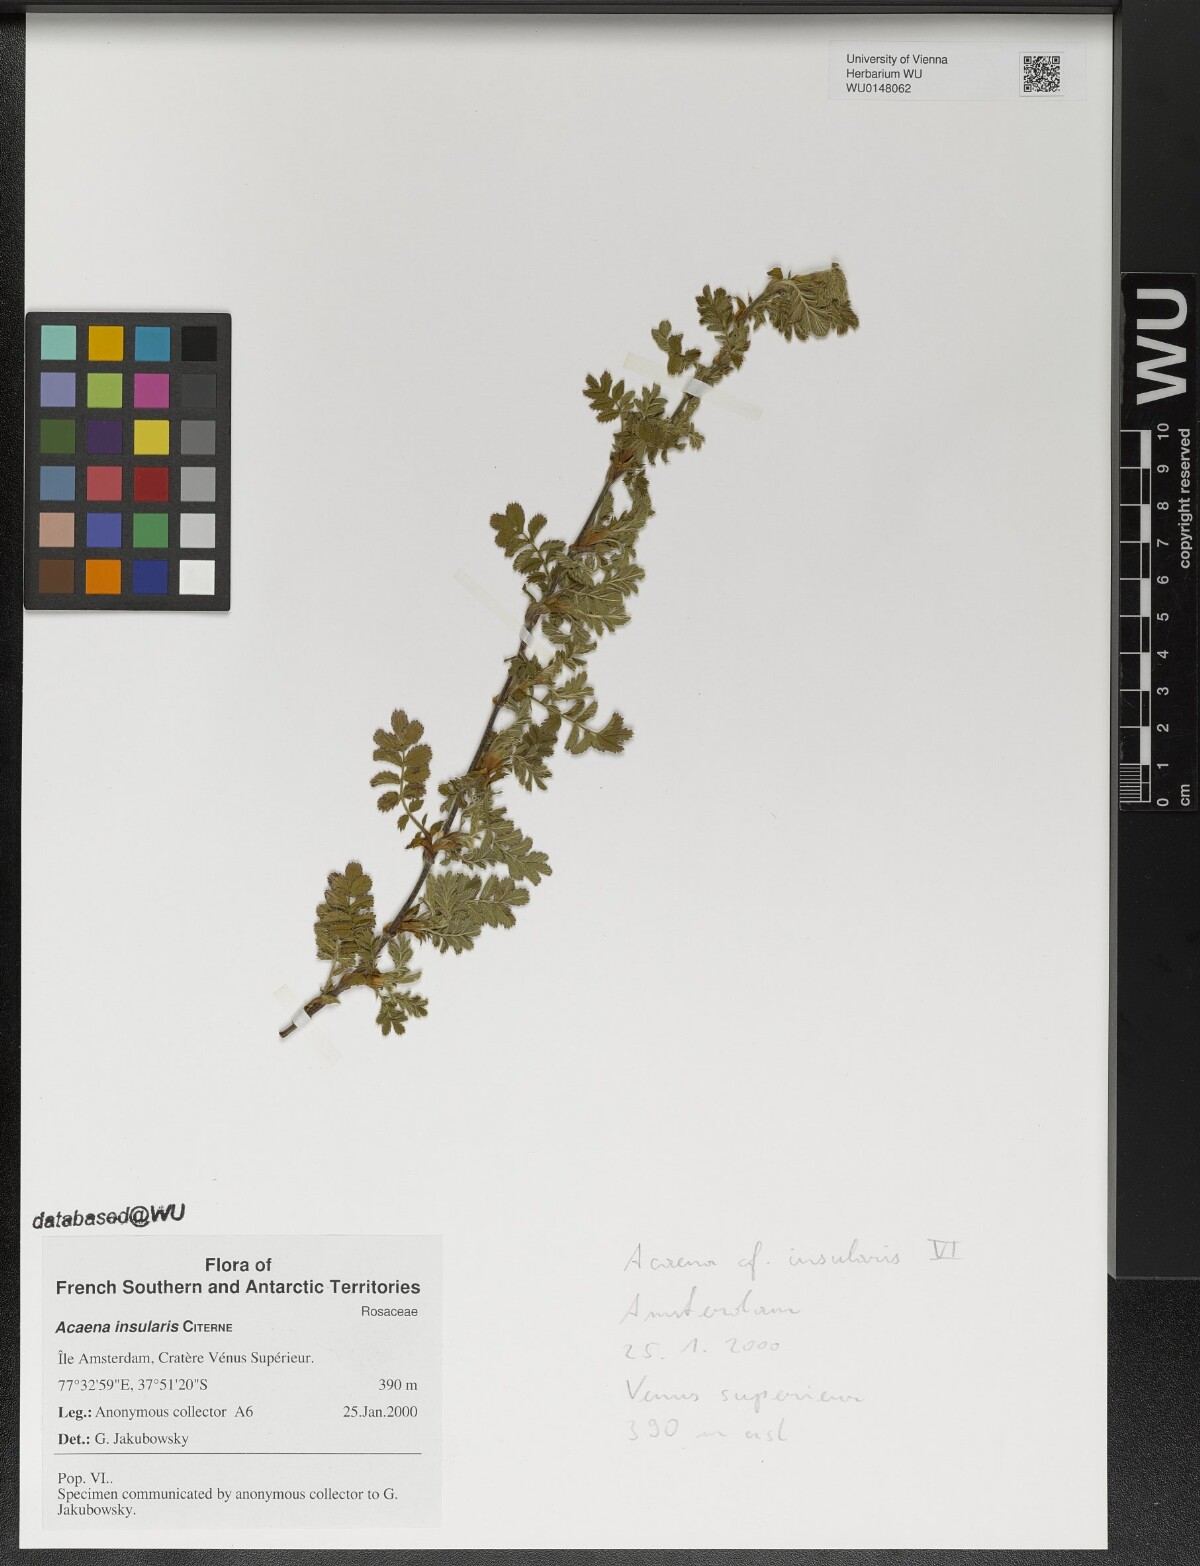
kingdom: Plantae
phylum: Tracheophyta
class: Magnoliopsida
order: Rosales
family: Rosaceae
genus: Acaena
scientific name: Acaena insularis
